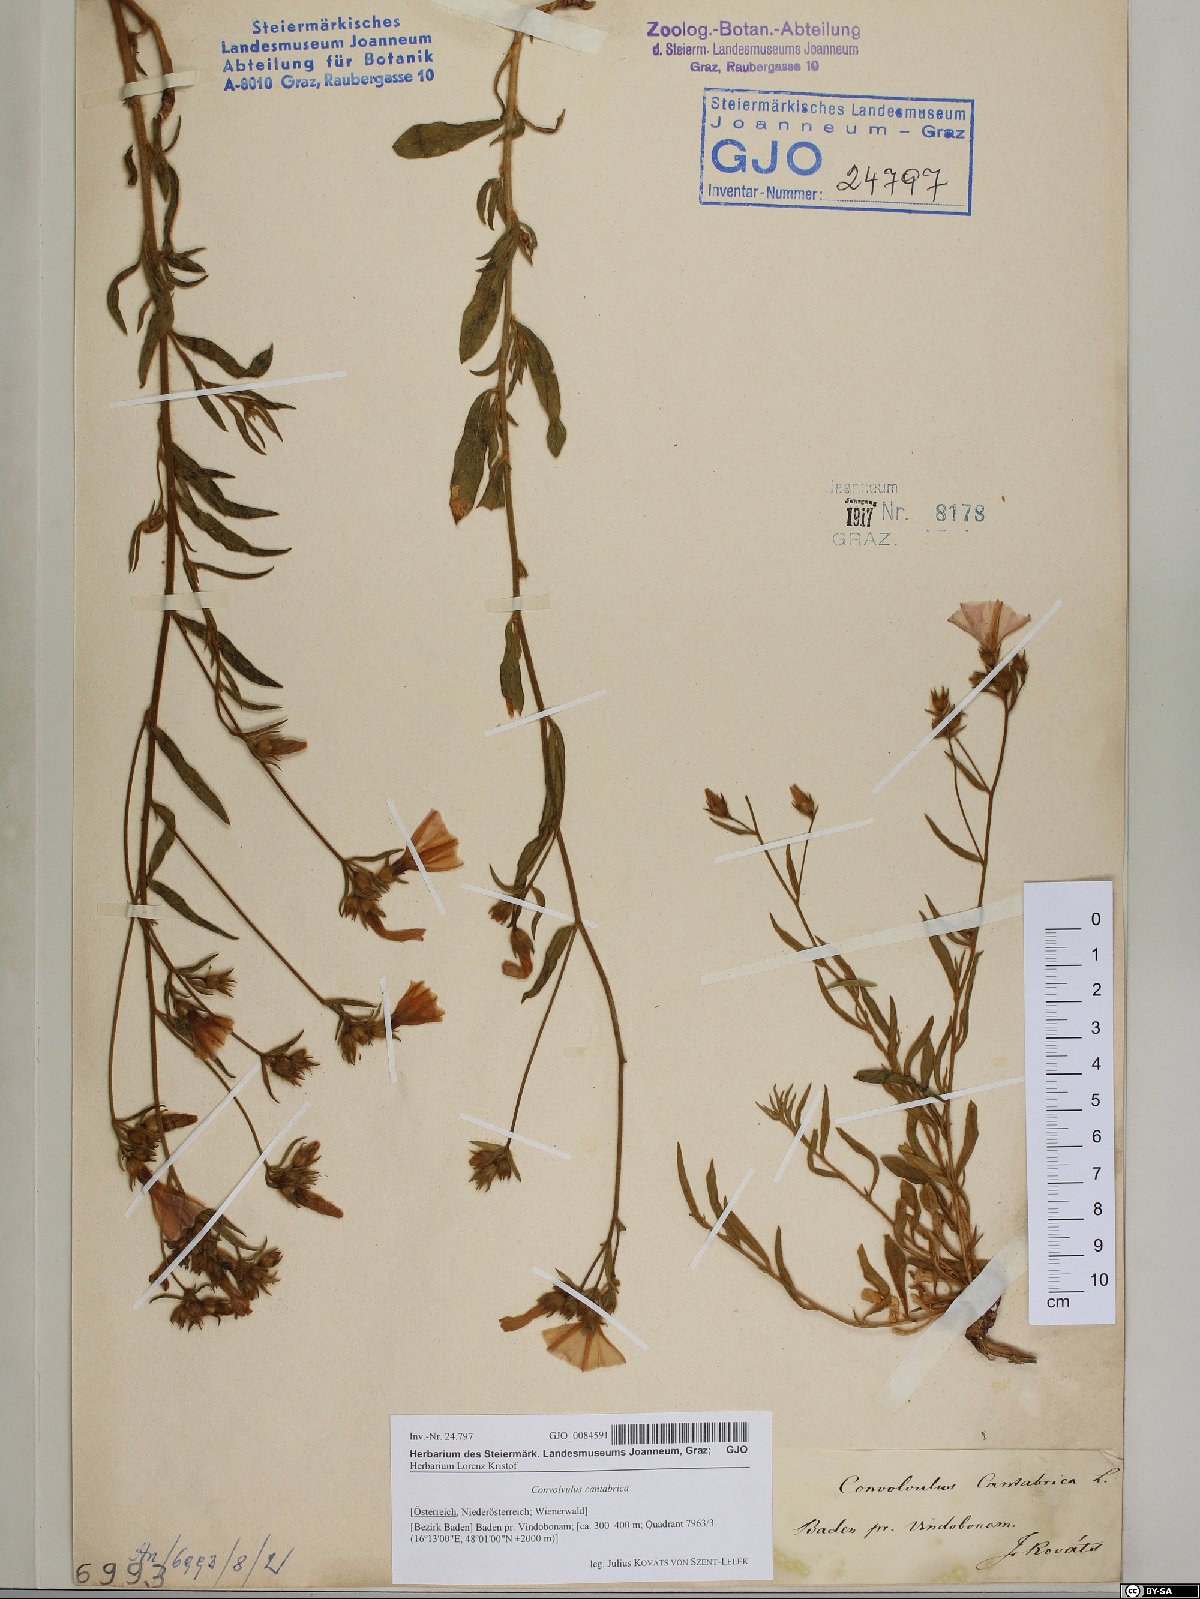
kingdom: Plantae
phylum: Tracheophyta
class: Magnoliopsida
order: Solanales
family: Convolvulaceae
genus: Convolvulus
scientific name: Convolvulus cantabrica
